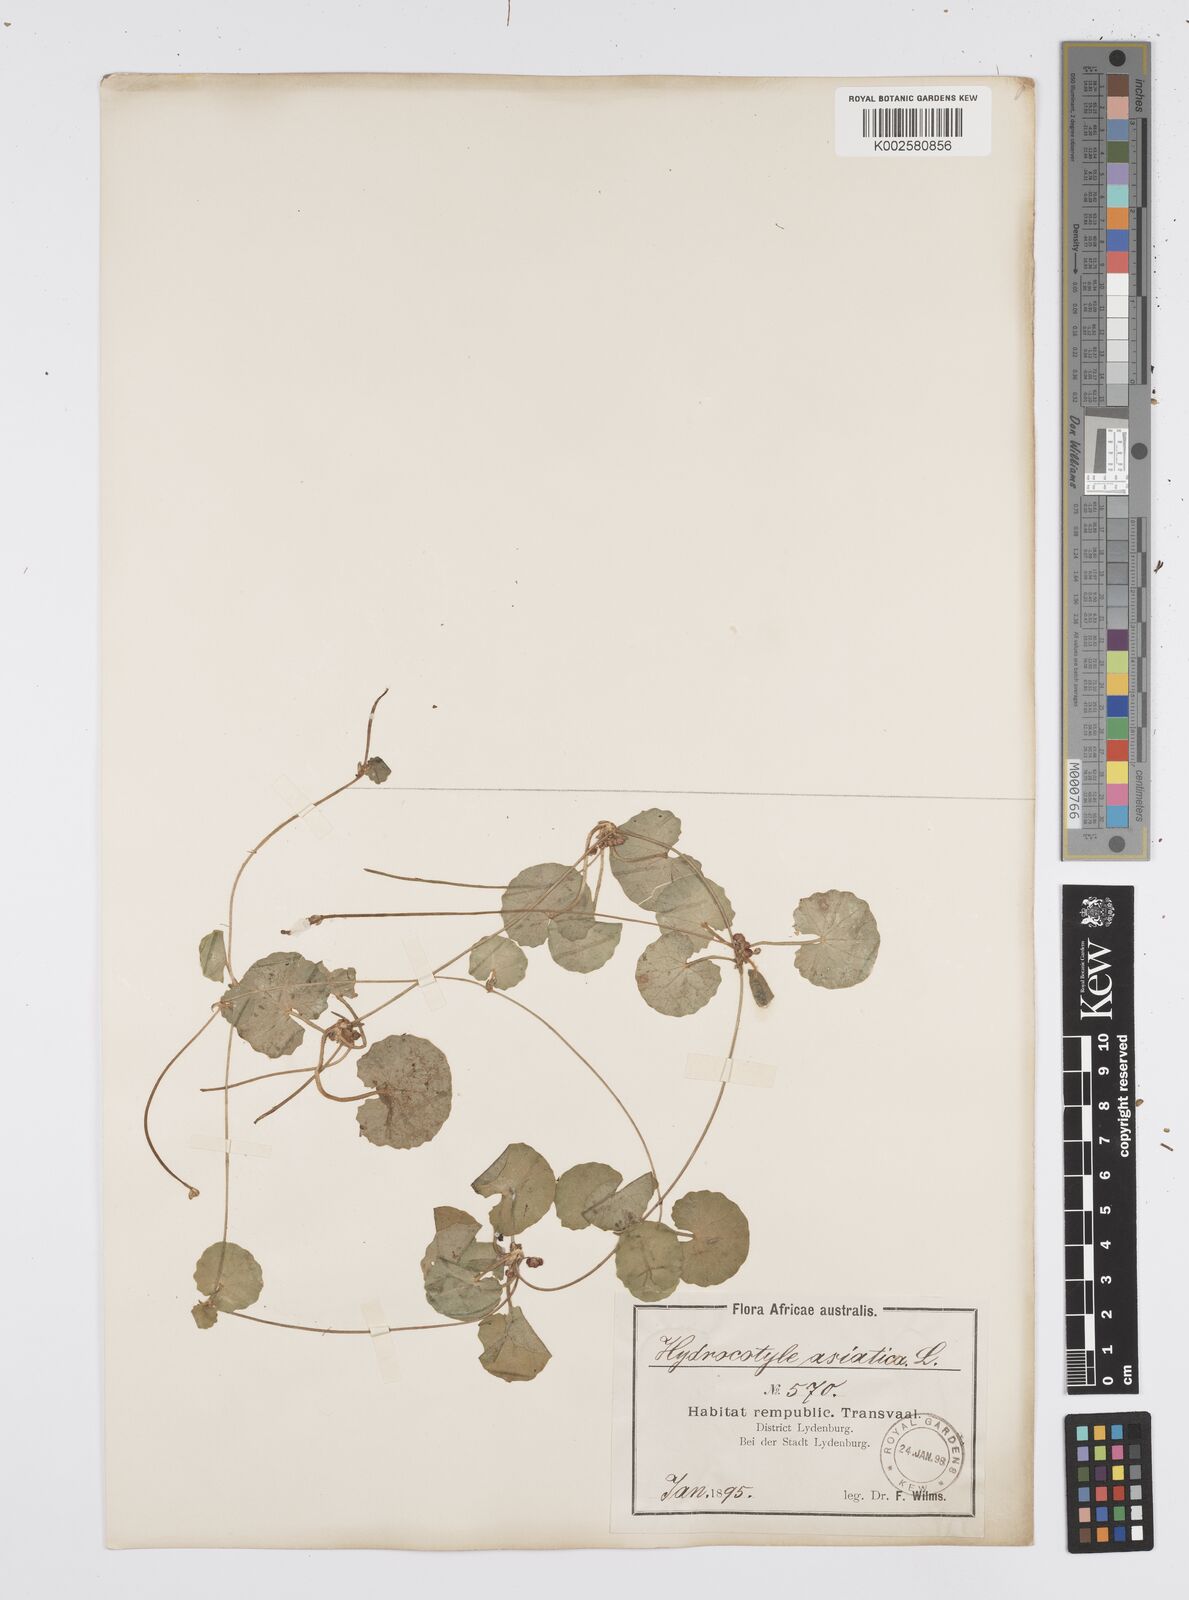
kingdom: Plantae
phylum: Tracheophyta
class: Magnoliopsida
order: Apiales
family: Apiaceae
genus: Centella
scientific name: Centella coriacea
